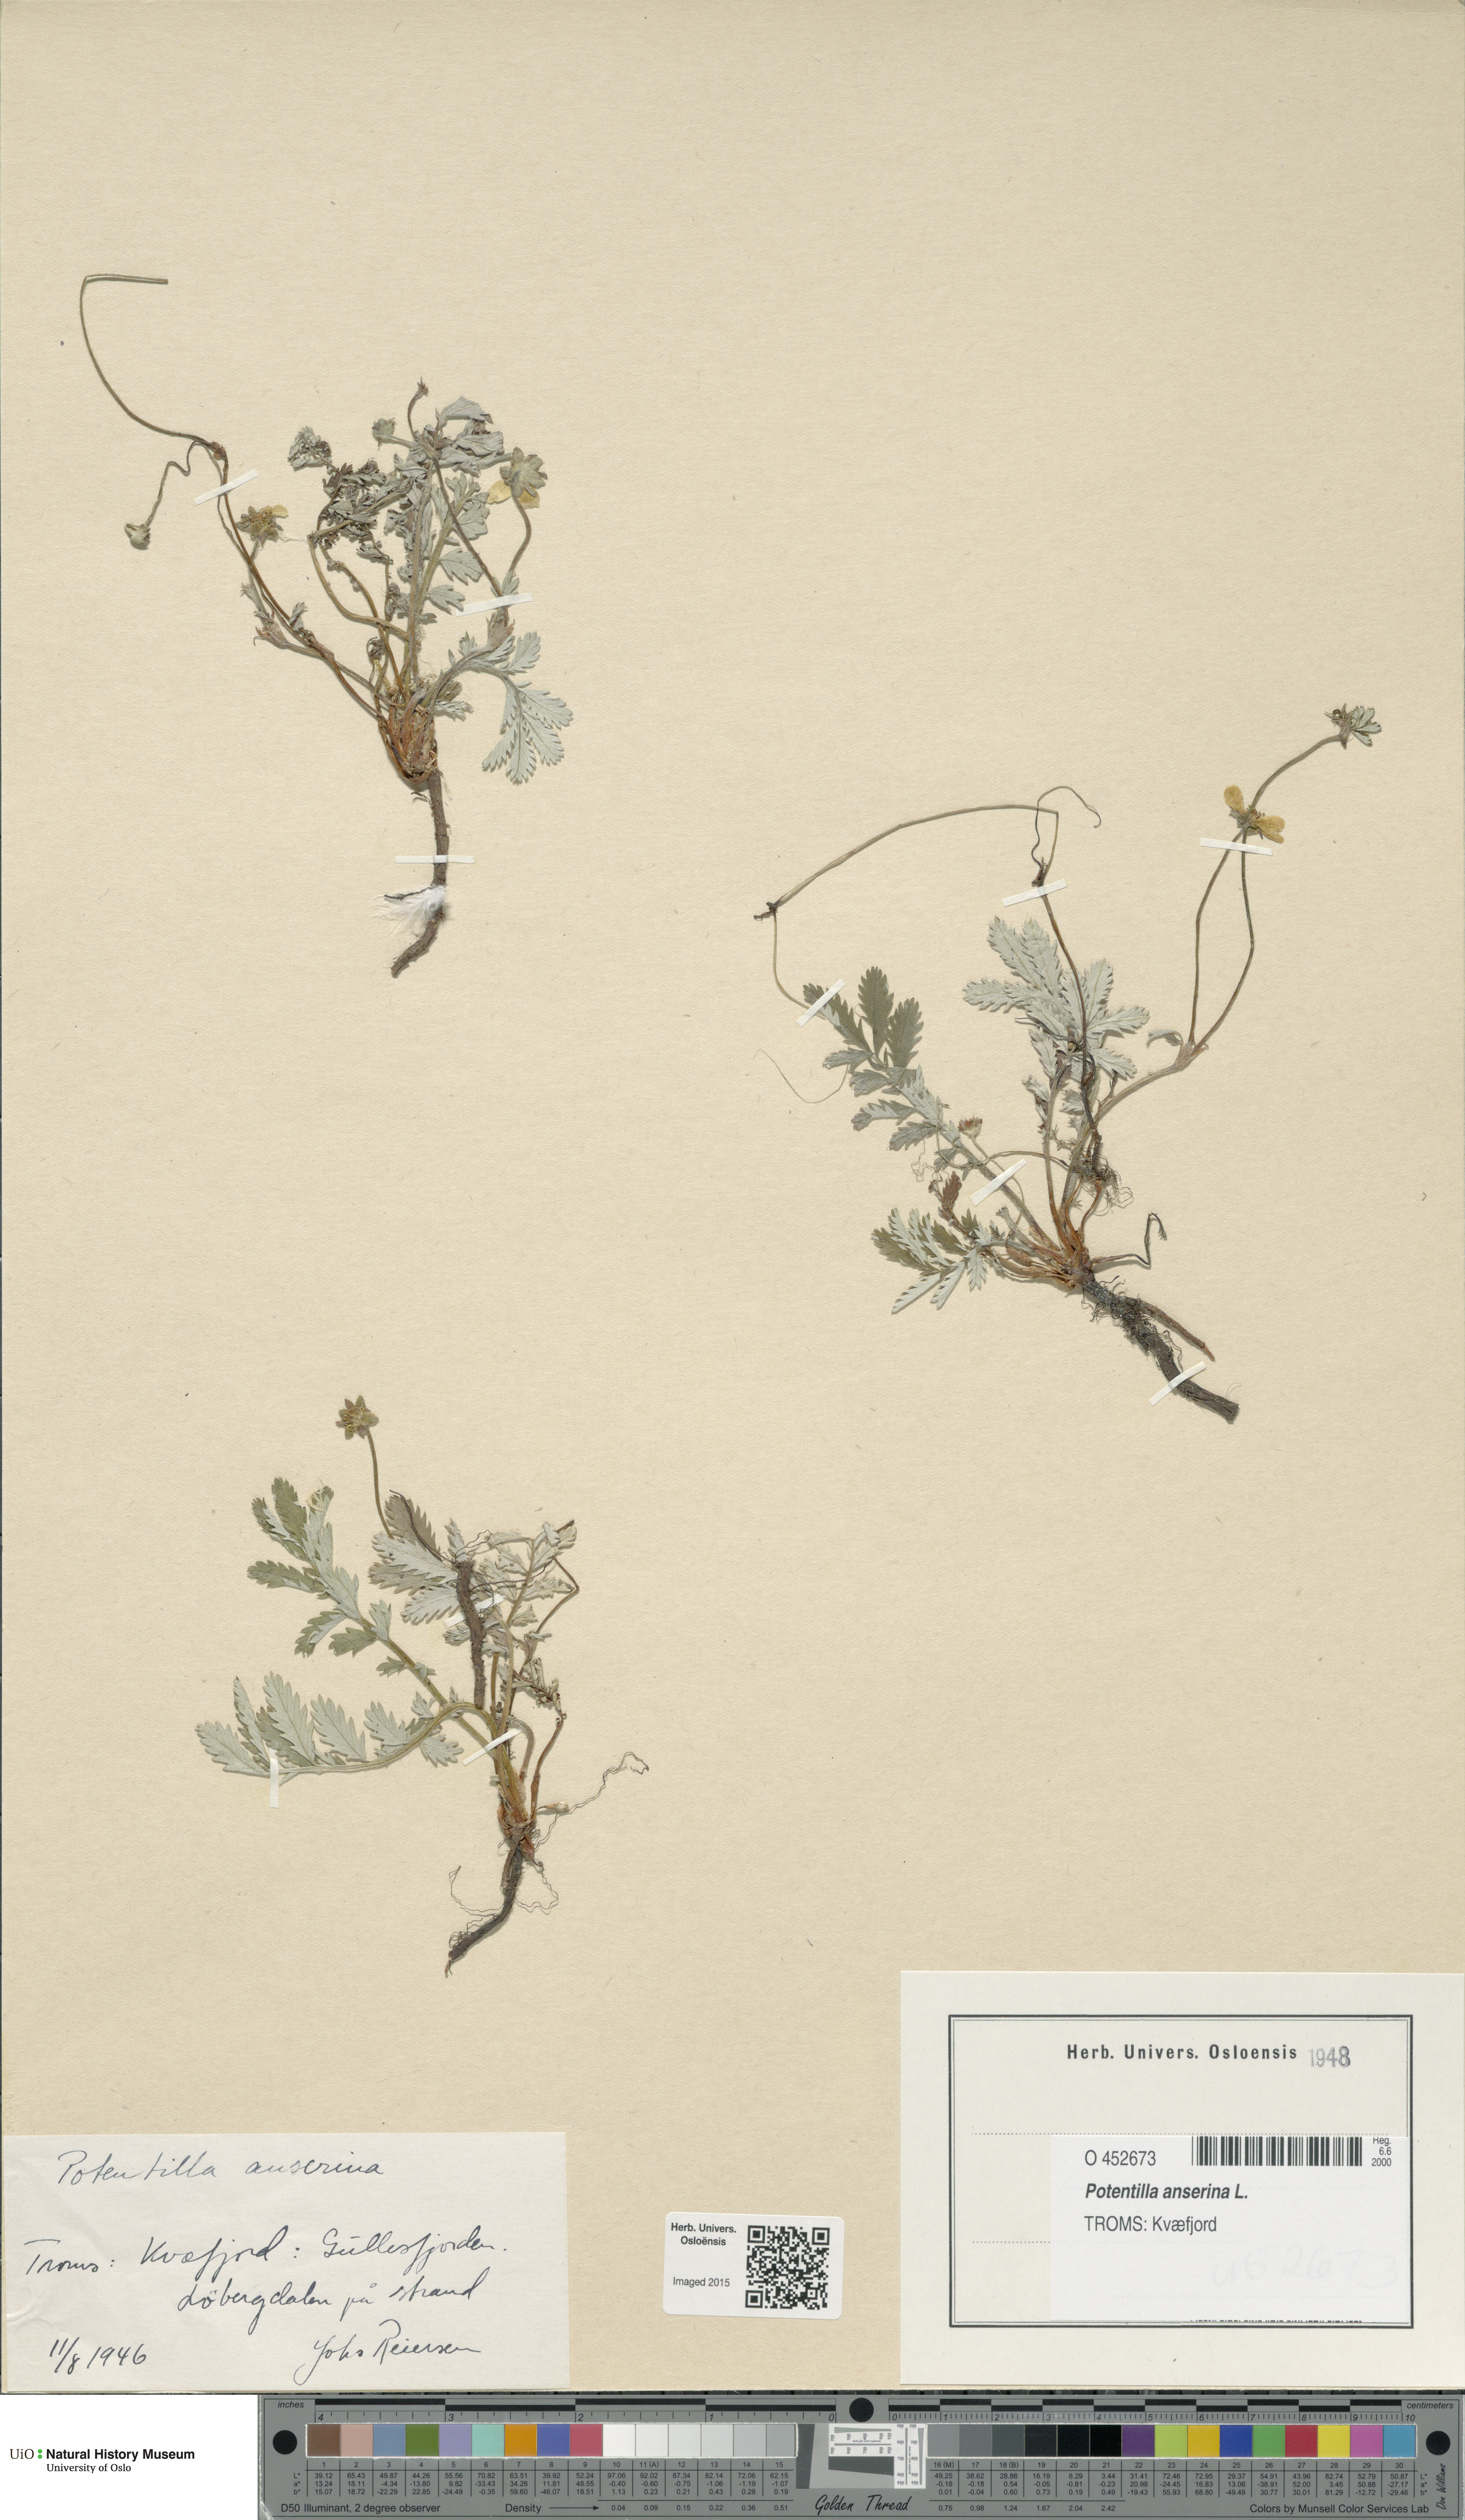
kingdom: Plantae
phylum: Tracheophyta
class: Magnoliopsida
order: Rosales
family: Rosaceae
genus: Argentina
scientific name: Argentina anserina
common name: Common silverweed
